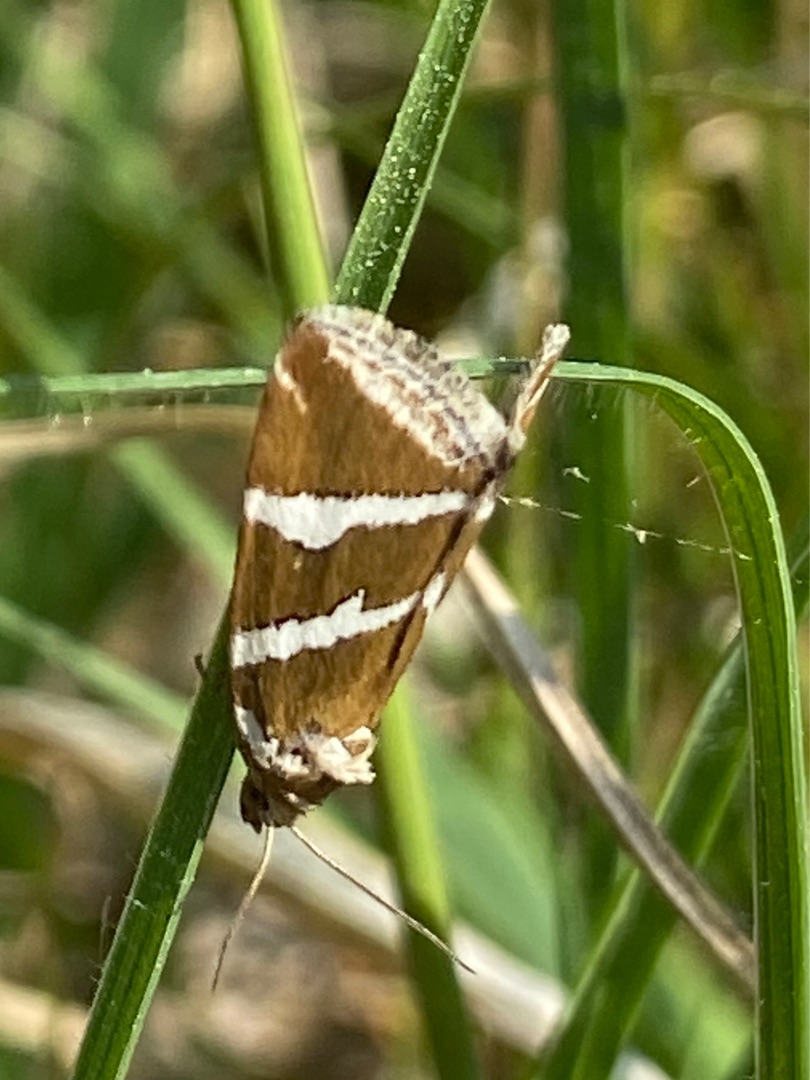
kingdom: Animalia
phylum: Arthropoda
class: Insecta
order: Lepidoptera
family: Noctuidae
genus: Deltote
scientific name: Deltote bankiana
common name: Tvebånd-dagugle
